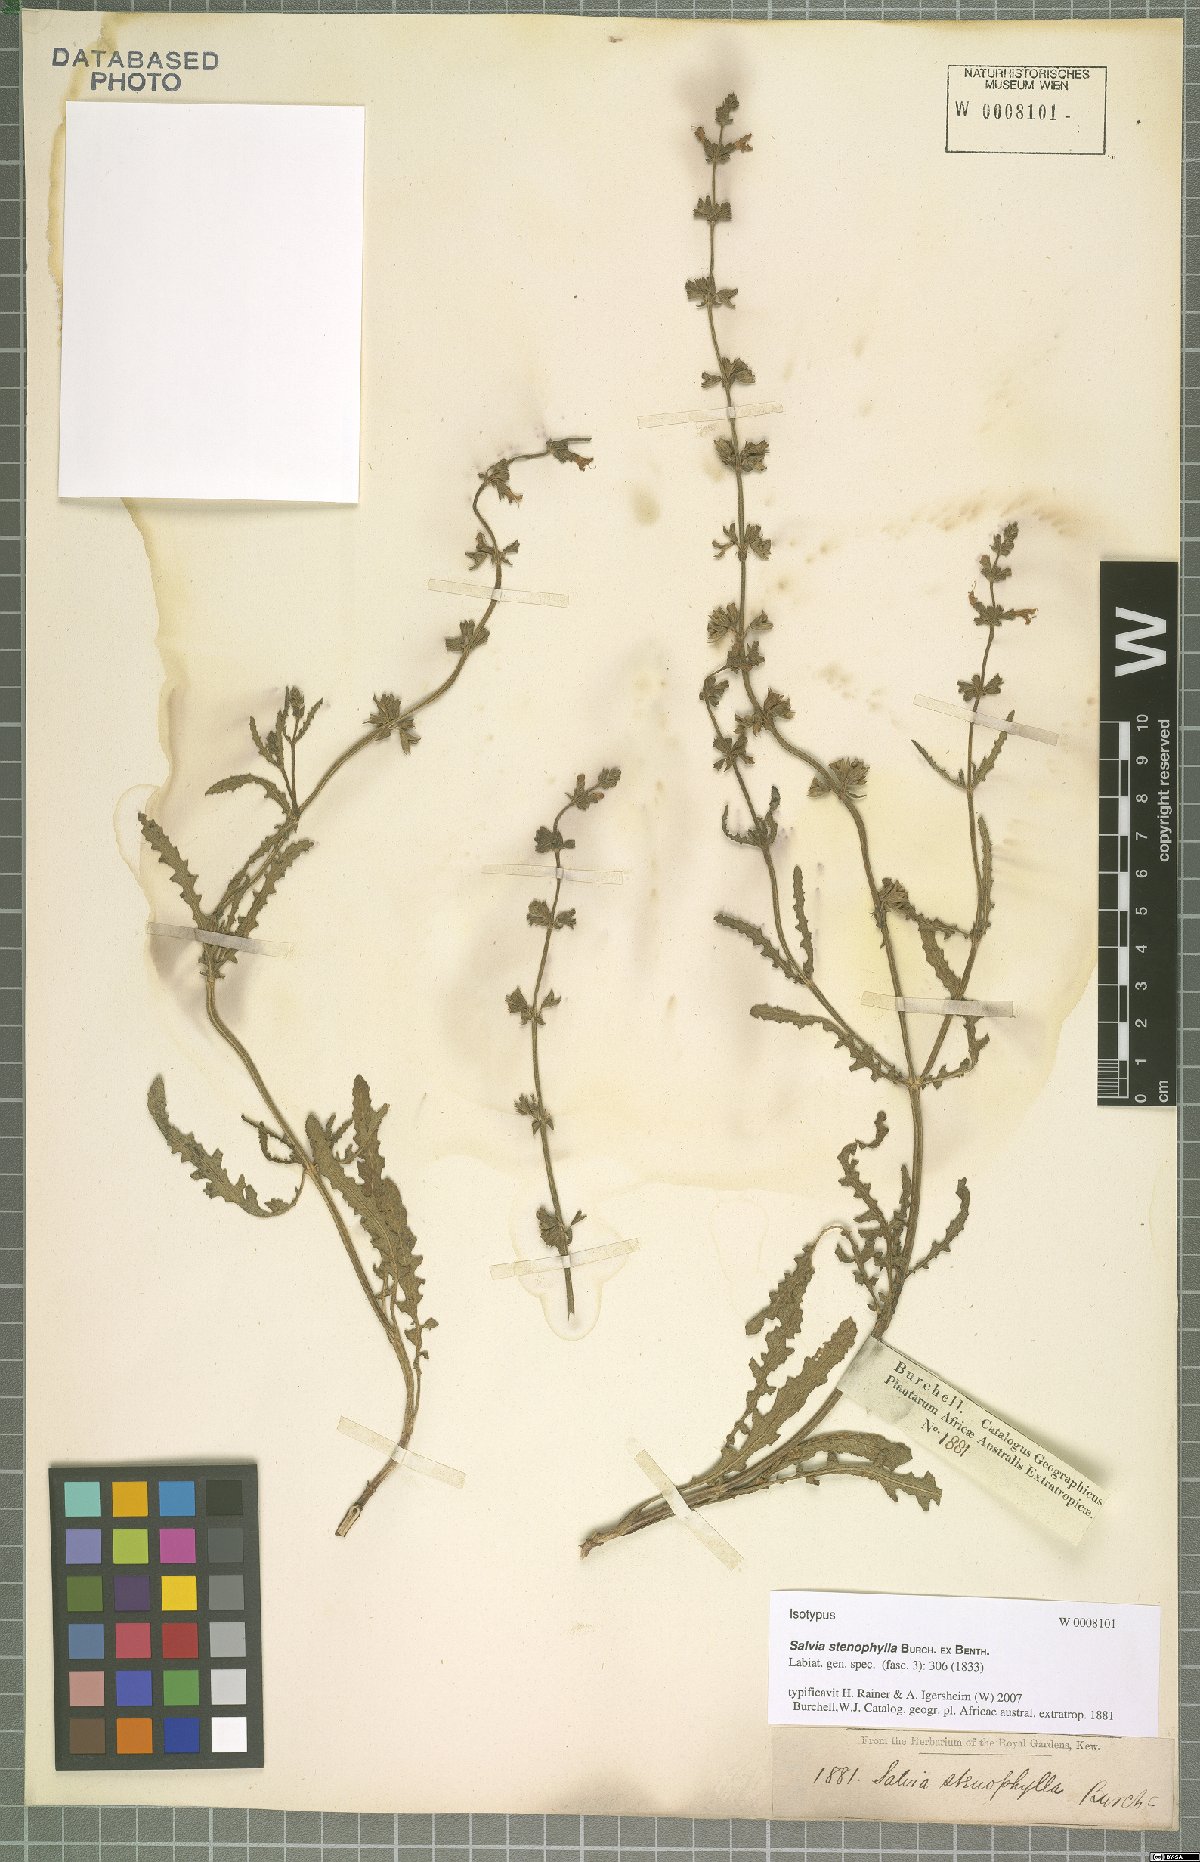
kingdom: Plantae
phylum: Tracheophyta
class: Magnoliopsida
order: Lamiales
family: Lamiaceae
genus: Salvia
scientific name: Salvia stenophylla
